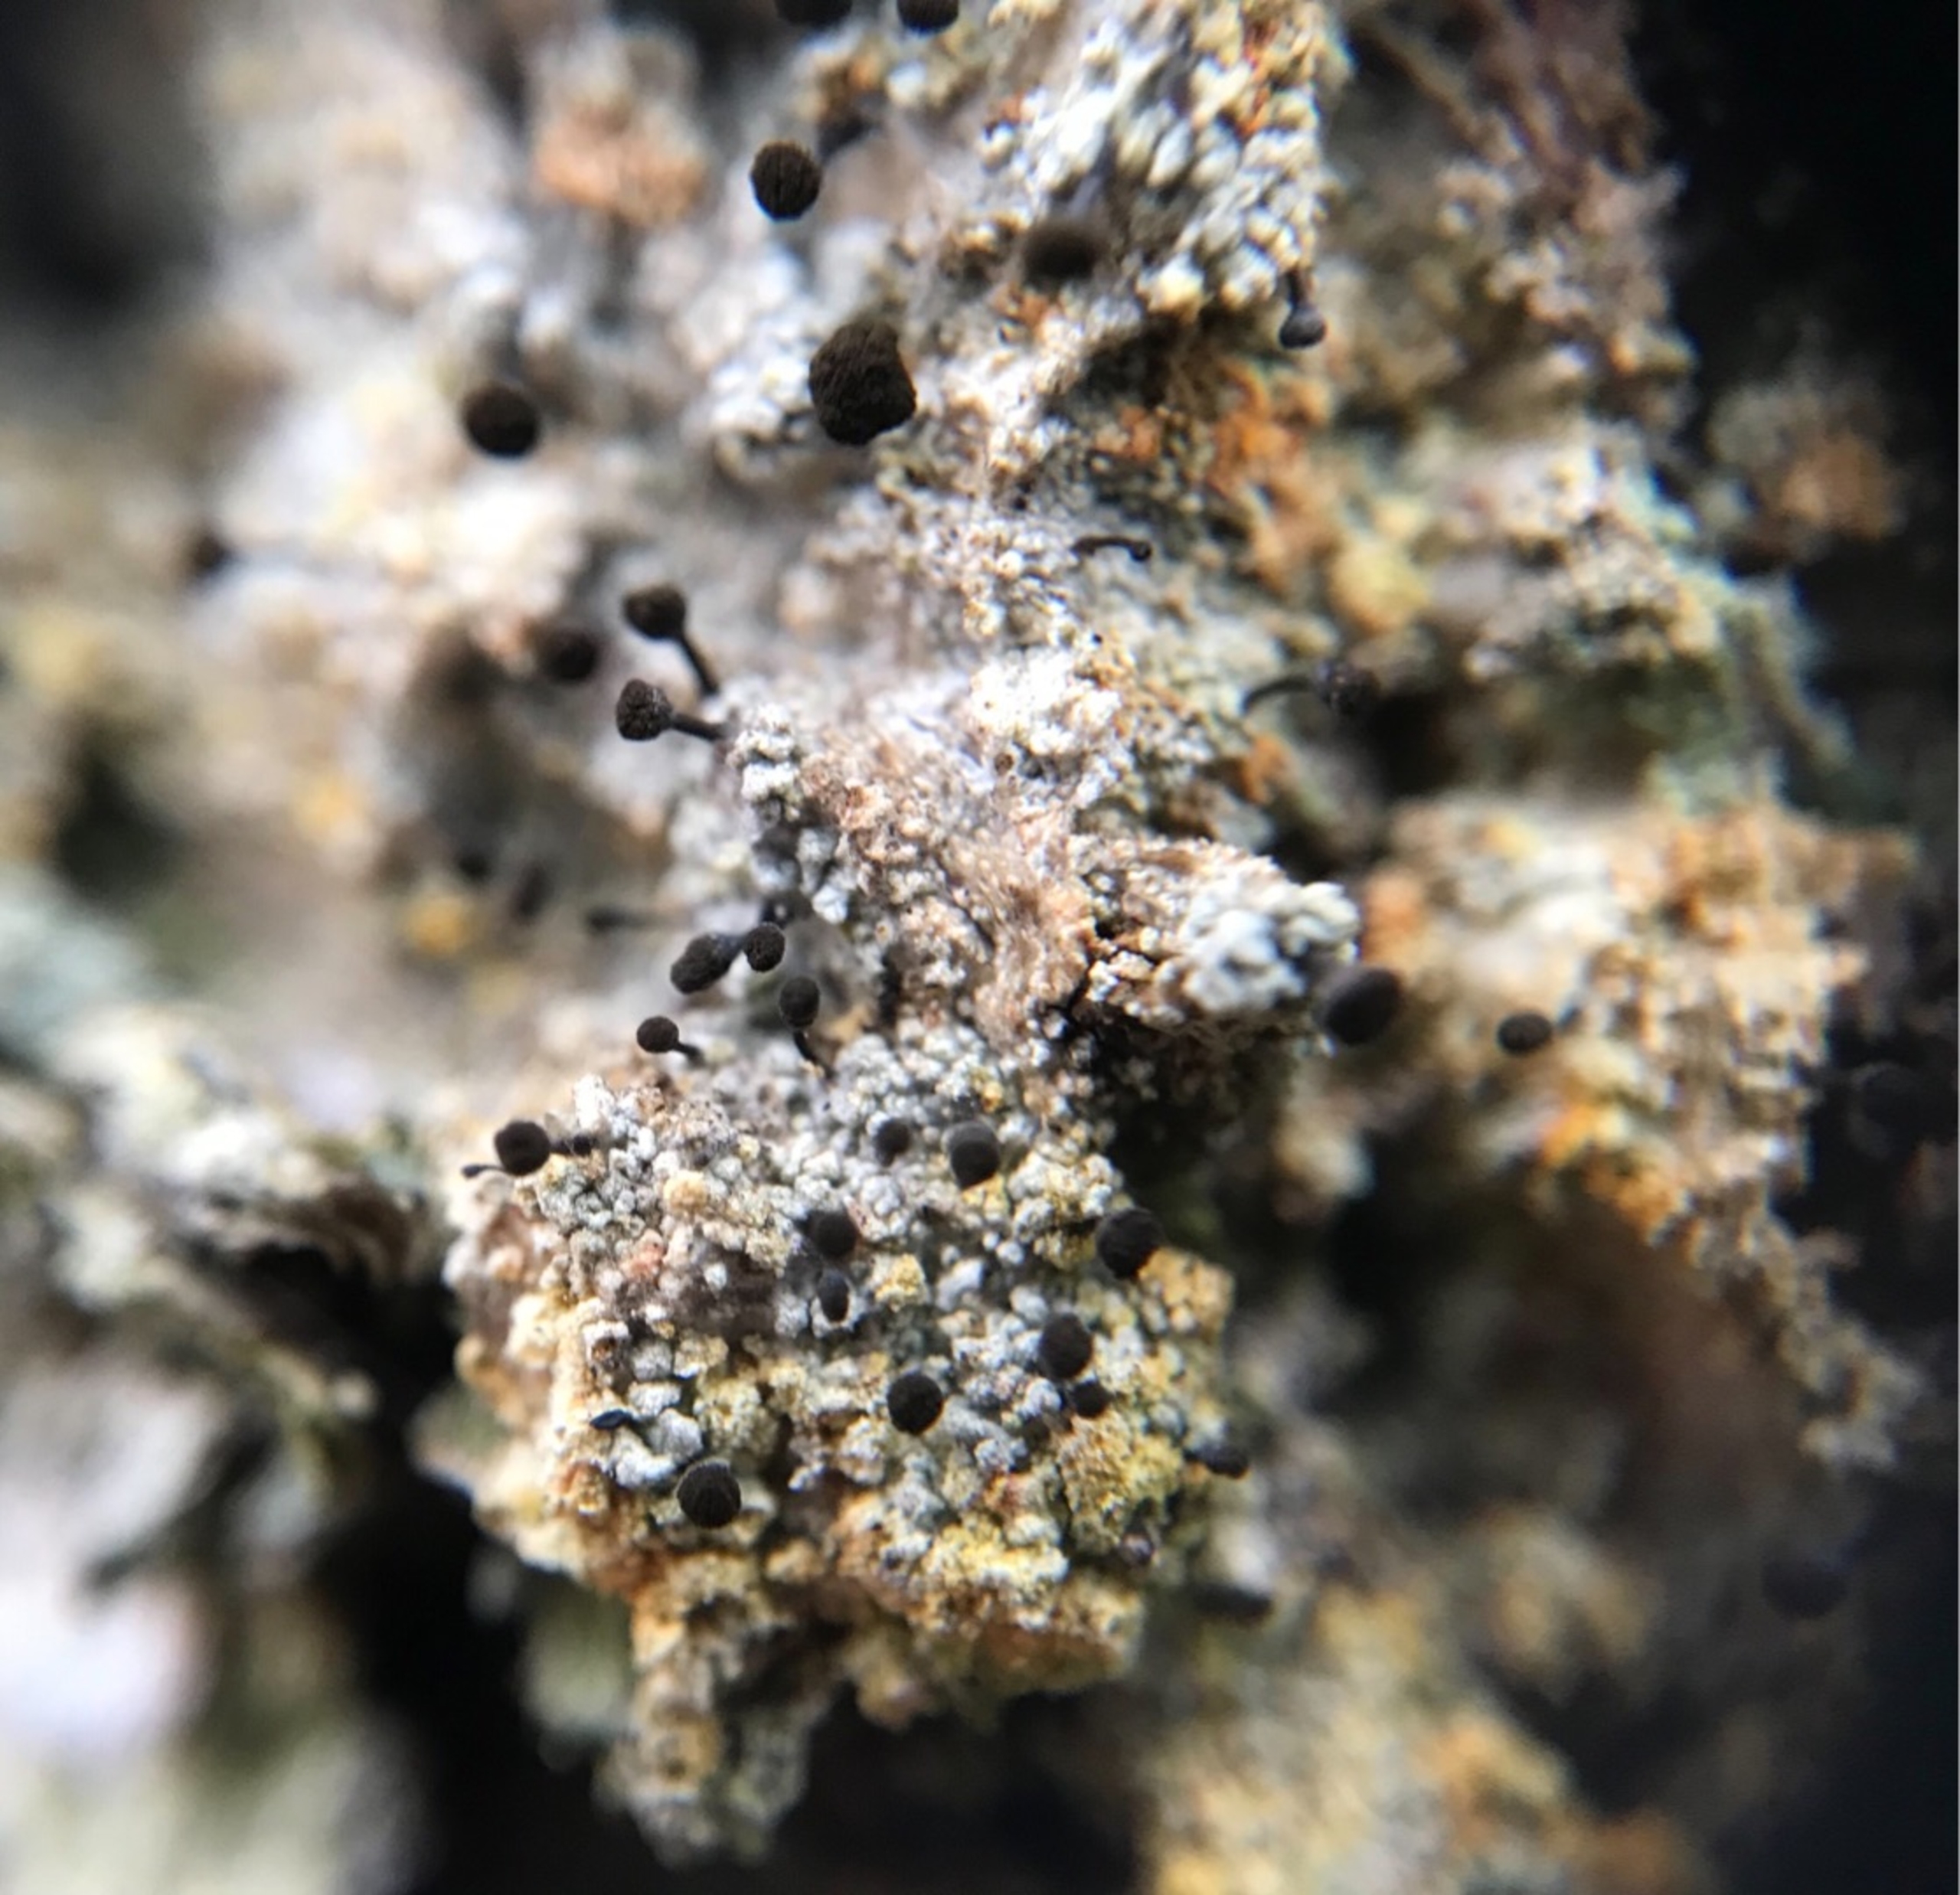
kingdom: Fungi
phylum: Ascomycota
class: Coniocybomycetes
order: Coniocybales
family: Coniocybaceae
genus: Chaenotheca
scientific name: Chaenotheca ferruginea
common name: Rustbrun knappenålslav
